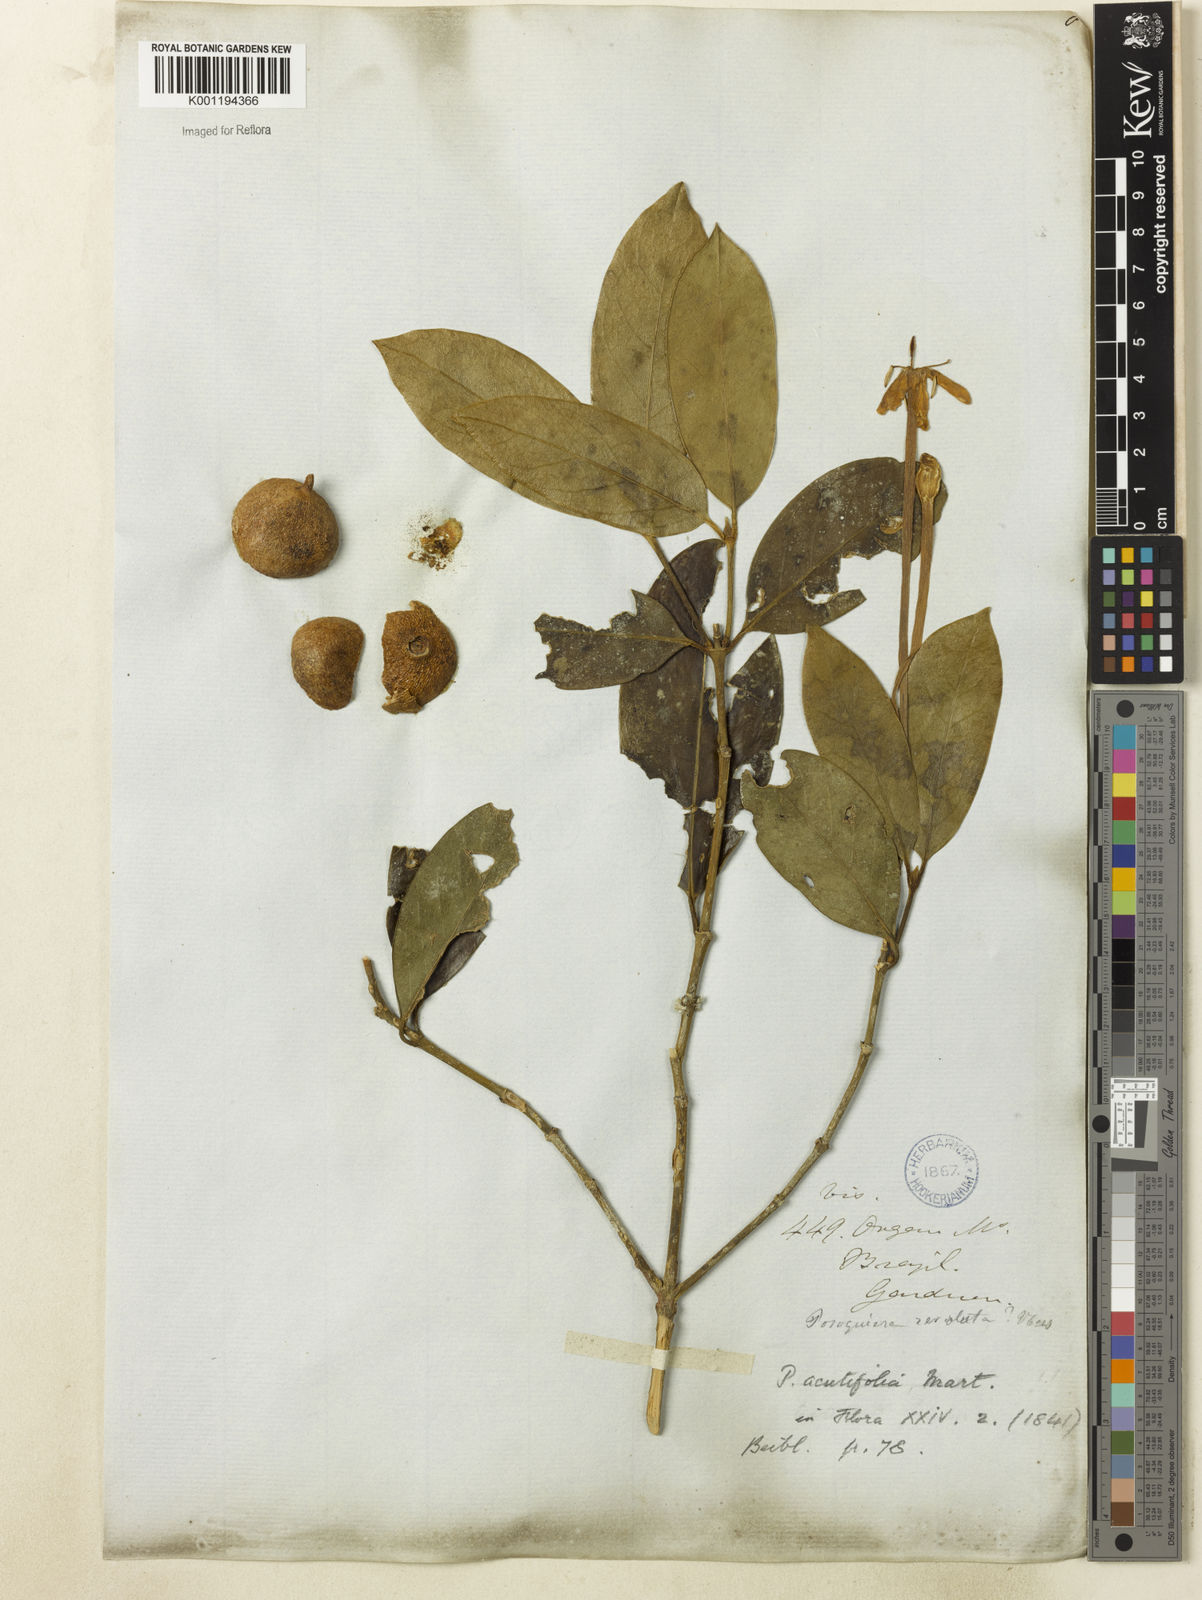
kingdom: Plantae
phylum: Tracheophyta
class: Magnoliopsida
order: Gentianales
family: Rubiaceae
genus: Posoqueria
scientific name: Posoqueria acutifolia
